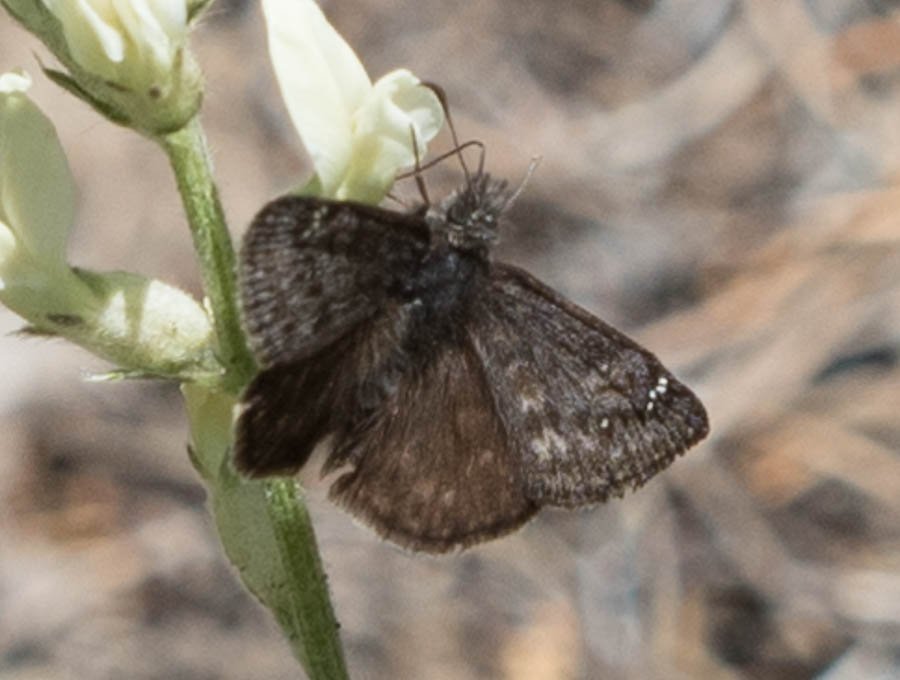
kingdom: Animalia
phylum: Arthropoda
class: Insecta
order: Lepidoptera
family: Hesperiidae
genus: Gesta
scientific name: Gesta
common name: Persius Duskywing
